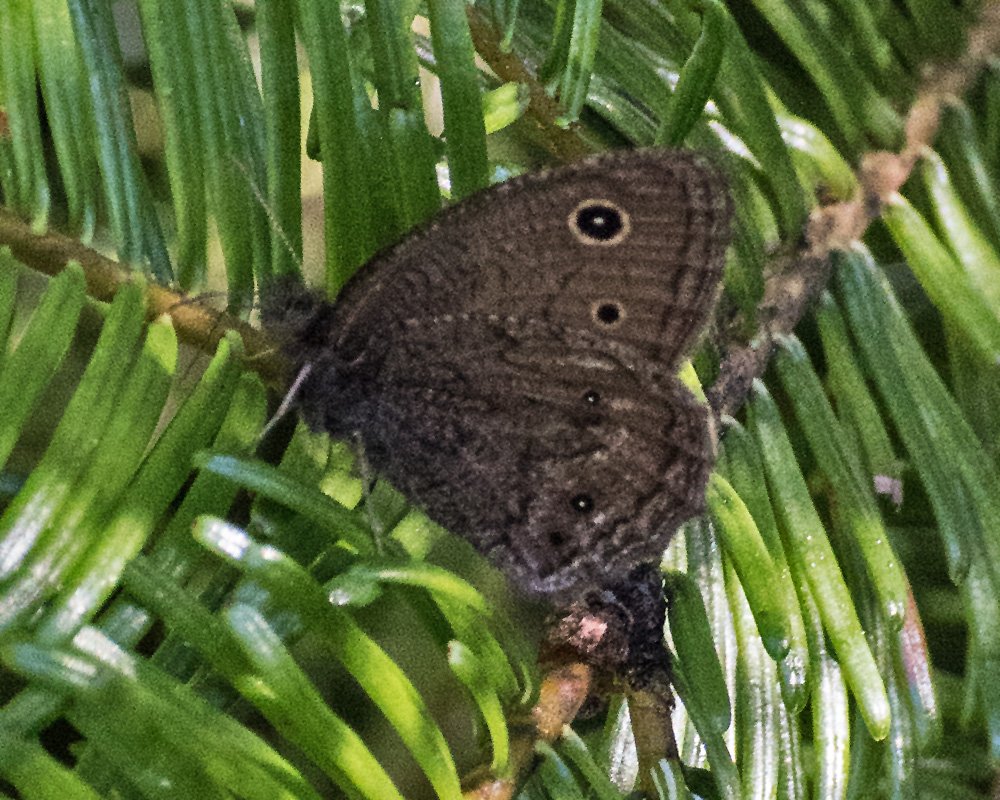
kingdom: Animalia
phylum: Arthropoda
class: Insecta
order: Lepidoptera
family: Nymphalidae
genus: Cercyonis
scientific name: Cercyonis oetus
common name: Small Wood-Nymph
